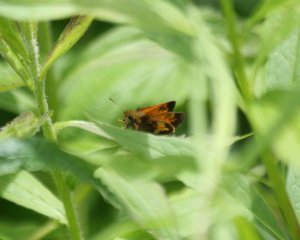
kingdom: Animalia
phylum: Arthropoda
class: Insecta
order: Lepidoptera
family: Hesperiidae
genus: Lon
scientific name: Lon hobomok
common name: Hobomok Skipper
